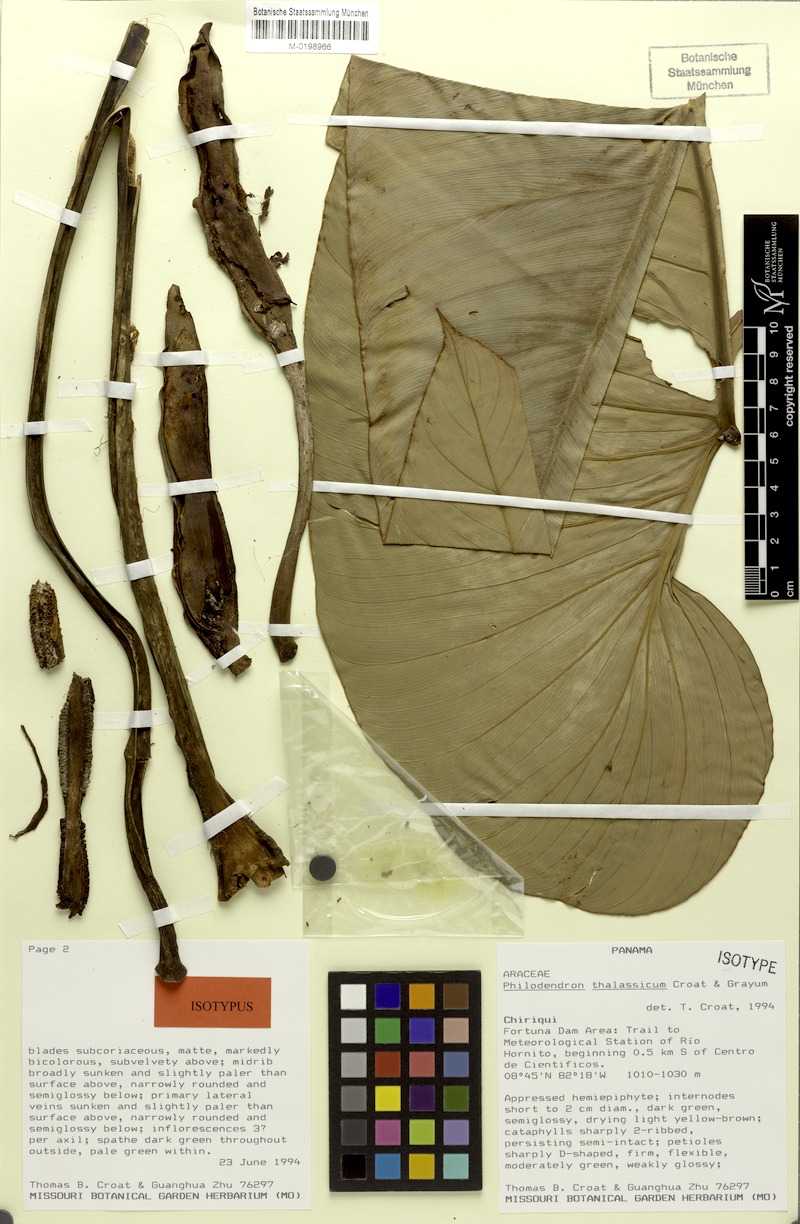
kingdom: Plantae
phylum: Tracheophyta
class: Liliopsida
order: Alismatales
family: Araceae
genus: Philodendron
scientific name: Philodendron thalassicum
